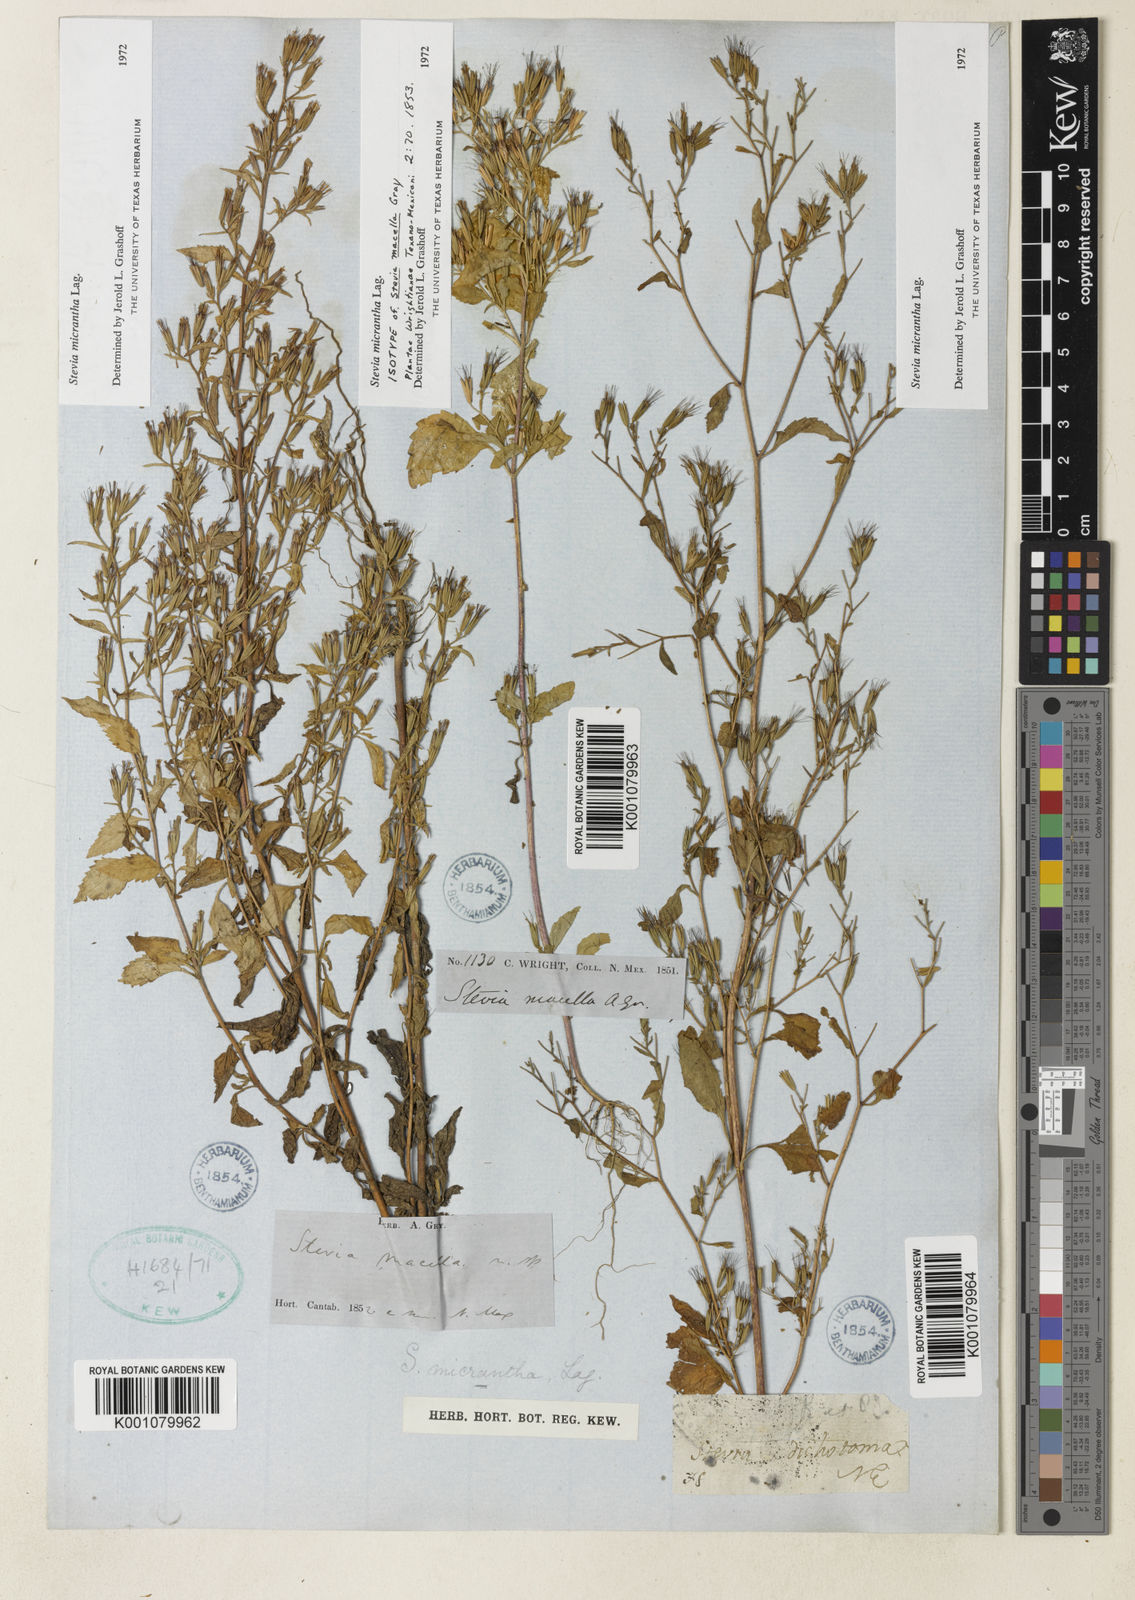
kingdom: Plantae
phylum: Tracheophyta
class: Magnoliopsida
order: Asterales
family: Asteraceae
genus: Stevia
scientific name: Stevia micrantha
